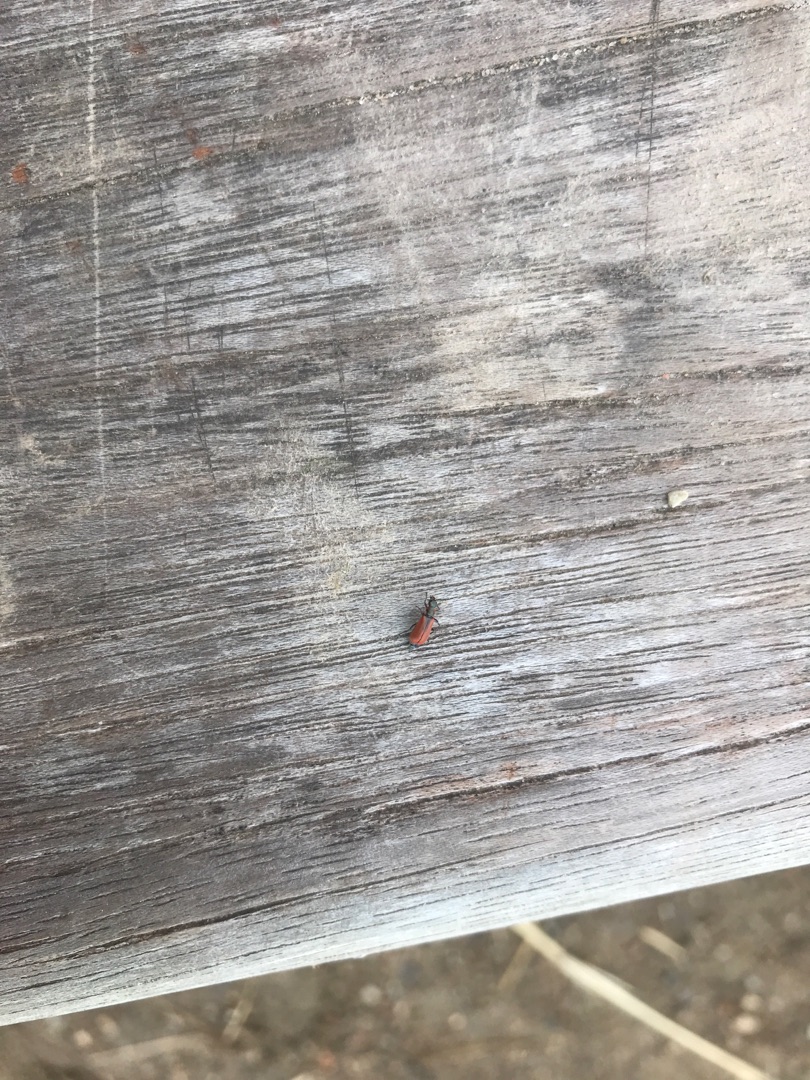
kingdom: Animalia
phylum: Arthropoda
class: Insecta
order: Coleoptera
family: Melyridae
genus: Anthocomus
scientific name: Anthocomus rufus
